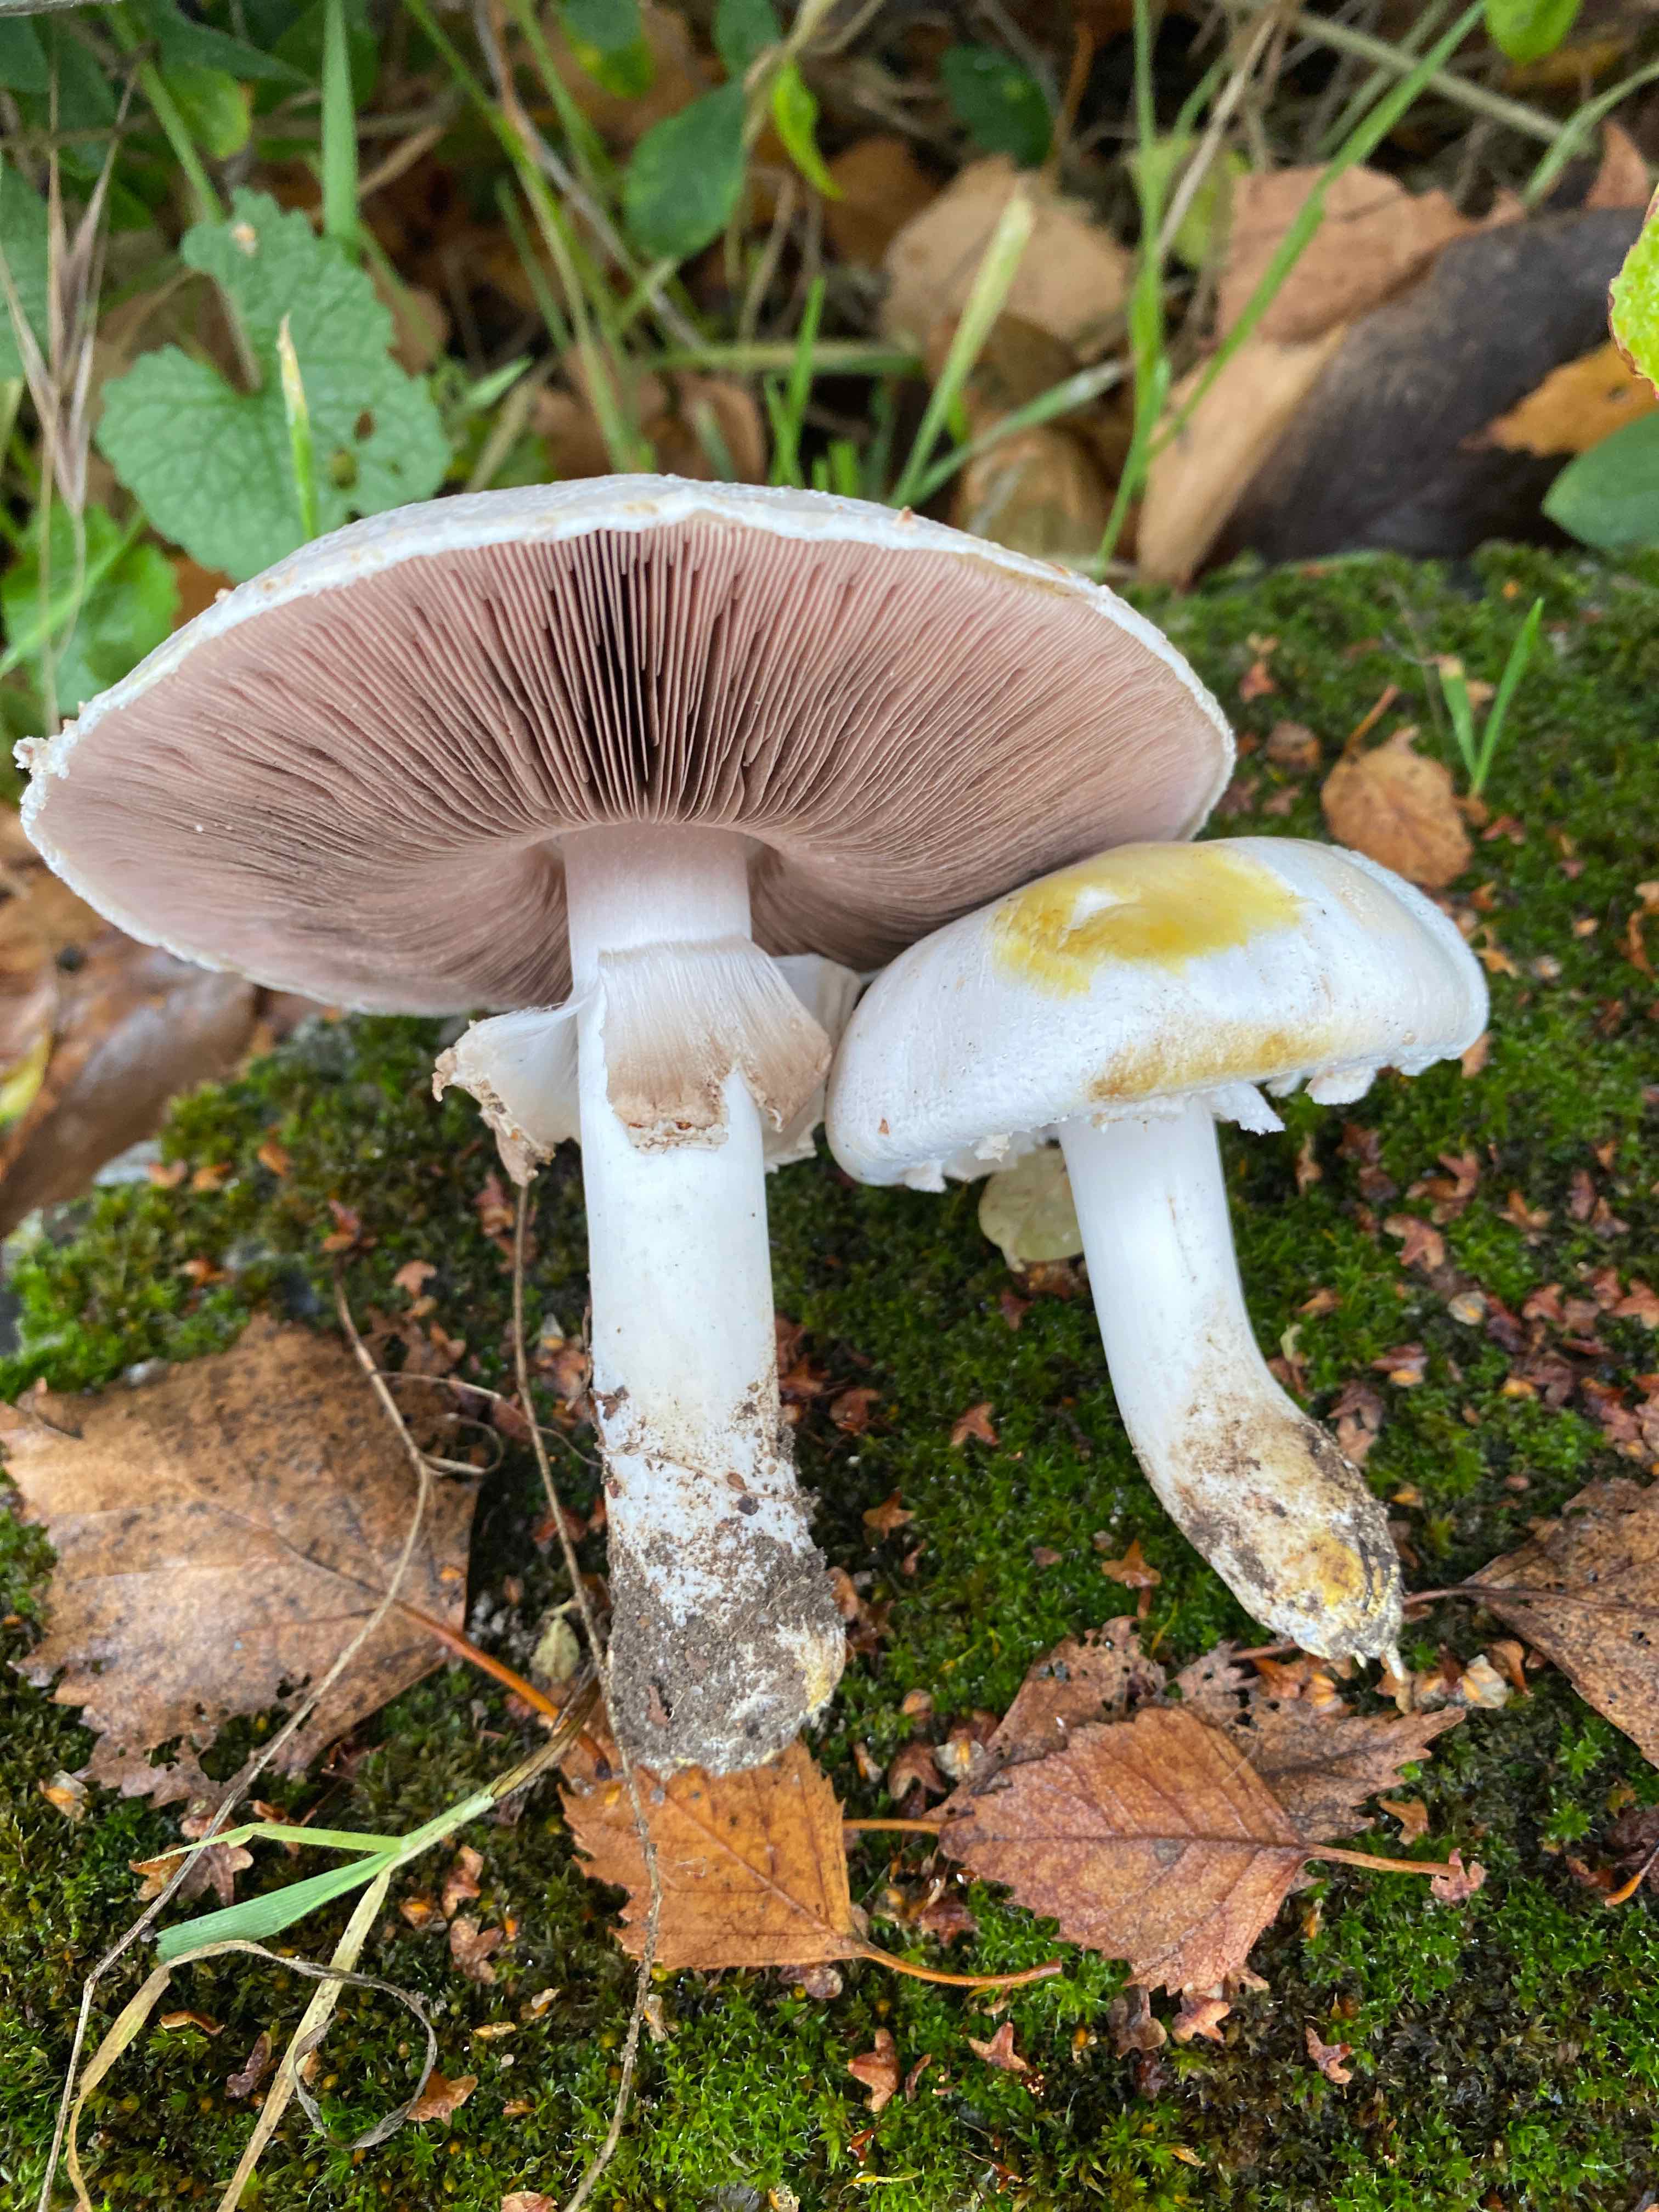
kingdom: Fungi
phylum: Basidiomycota
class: Agaricomycetes
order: Agaricales
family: Agaricaceae
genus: Agaricus
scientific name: Agaricus xanthodermus
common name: karbol-champignon
